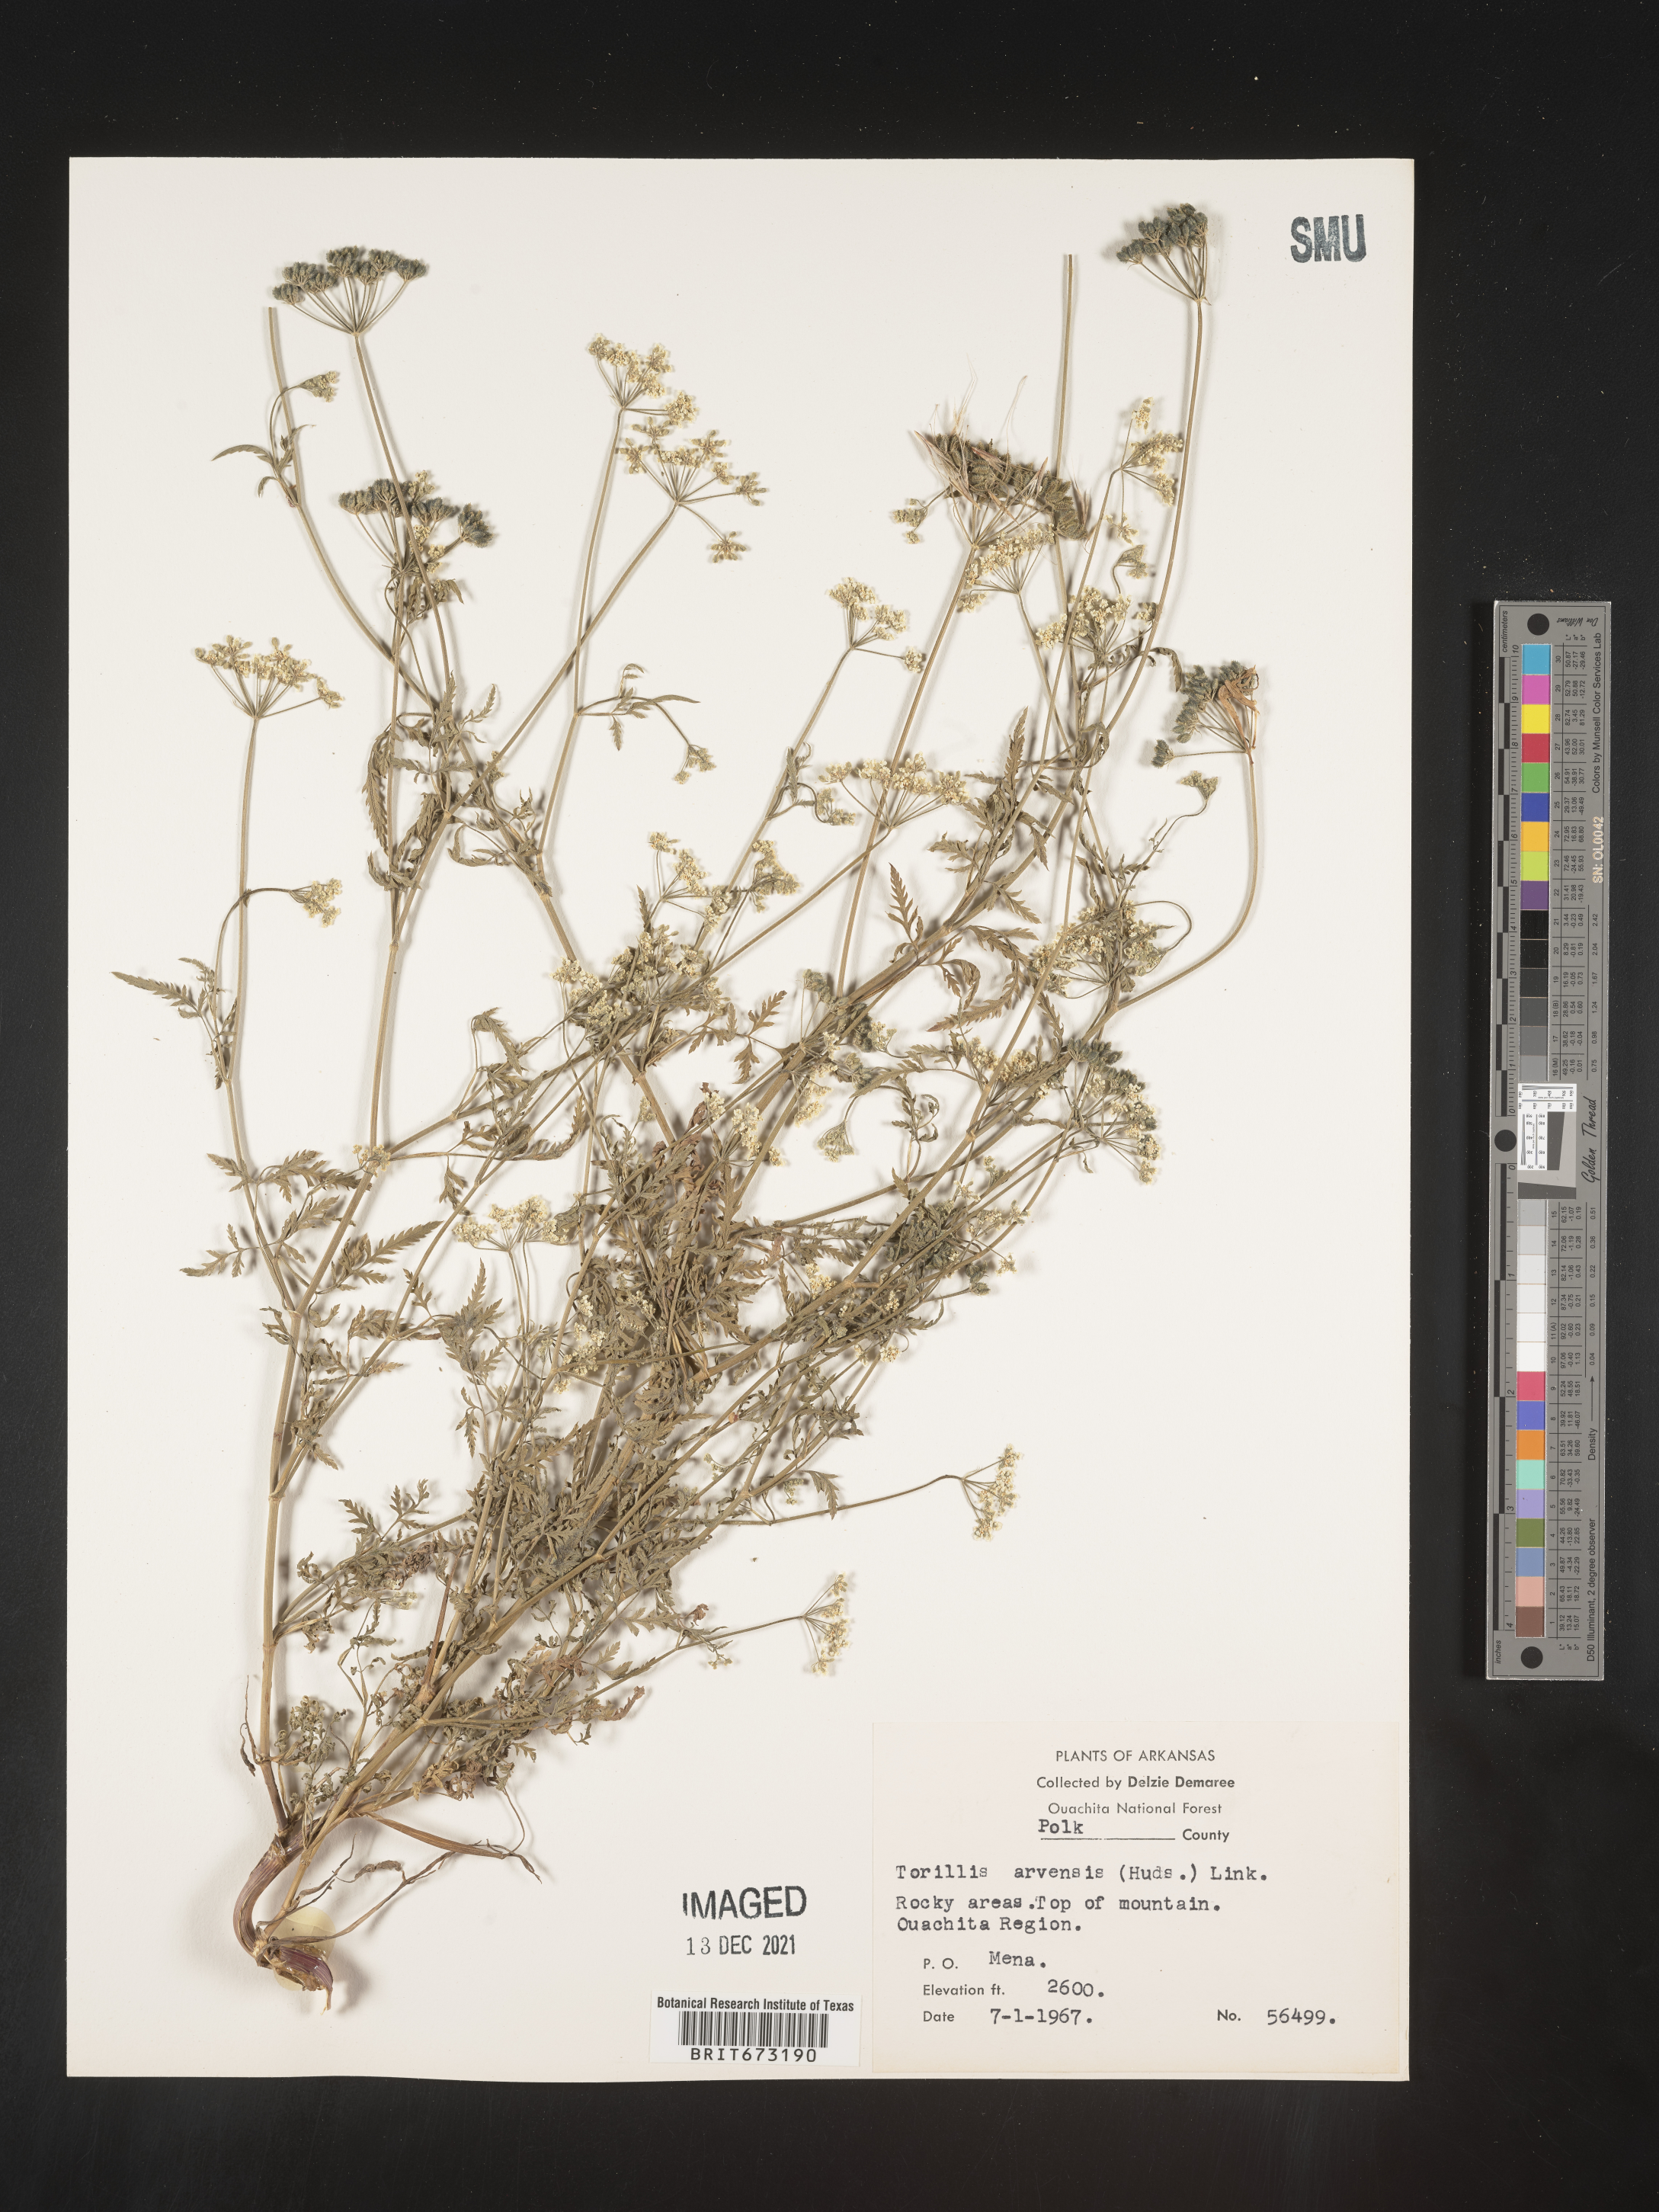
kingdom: Plantae
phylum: Tracheophyta
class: Magnoliopsida
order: Apiales
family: Apiaceae
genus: Torilis
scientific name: Torilis arvensis
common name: Spreading hedge-parsley
